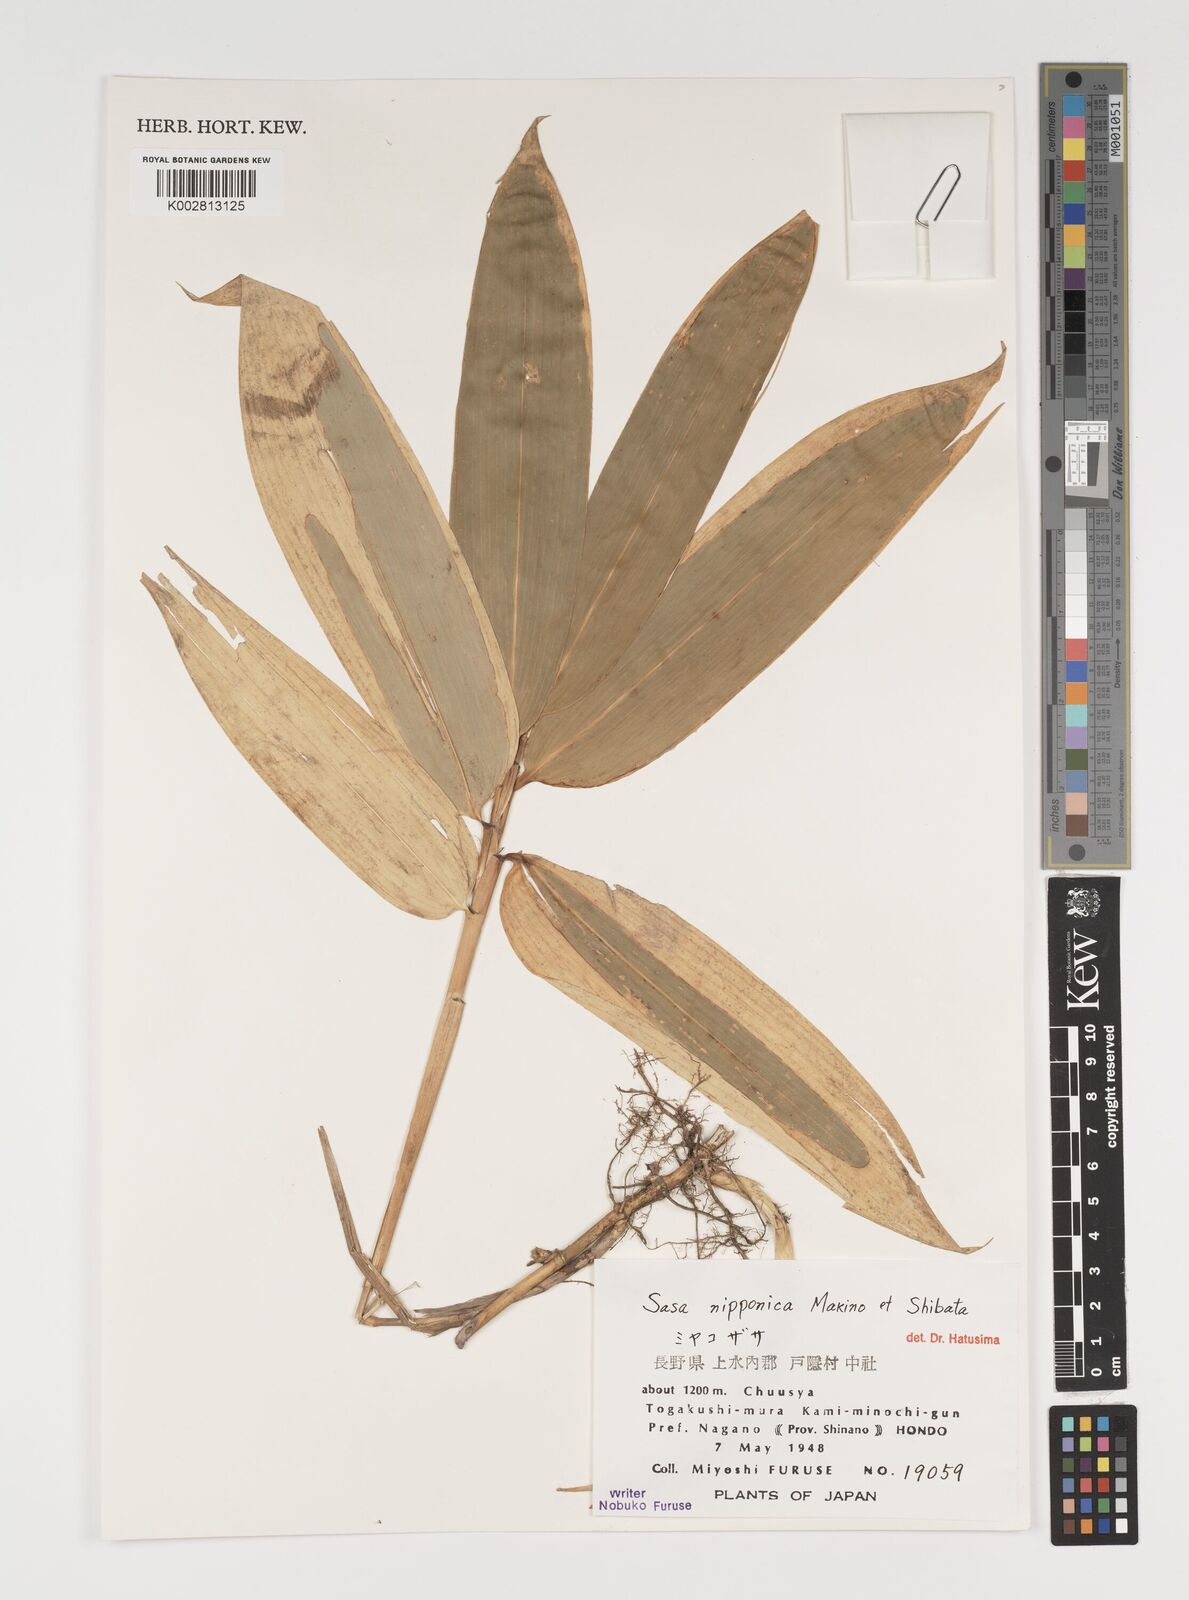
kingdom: Plantae
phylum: Tracheophyta
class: Liliopsida
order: Poales
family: Poaceae
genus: Sasa
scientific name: Sasa nipponica
